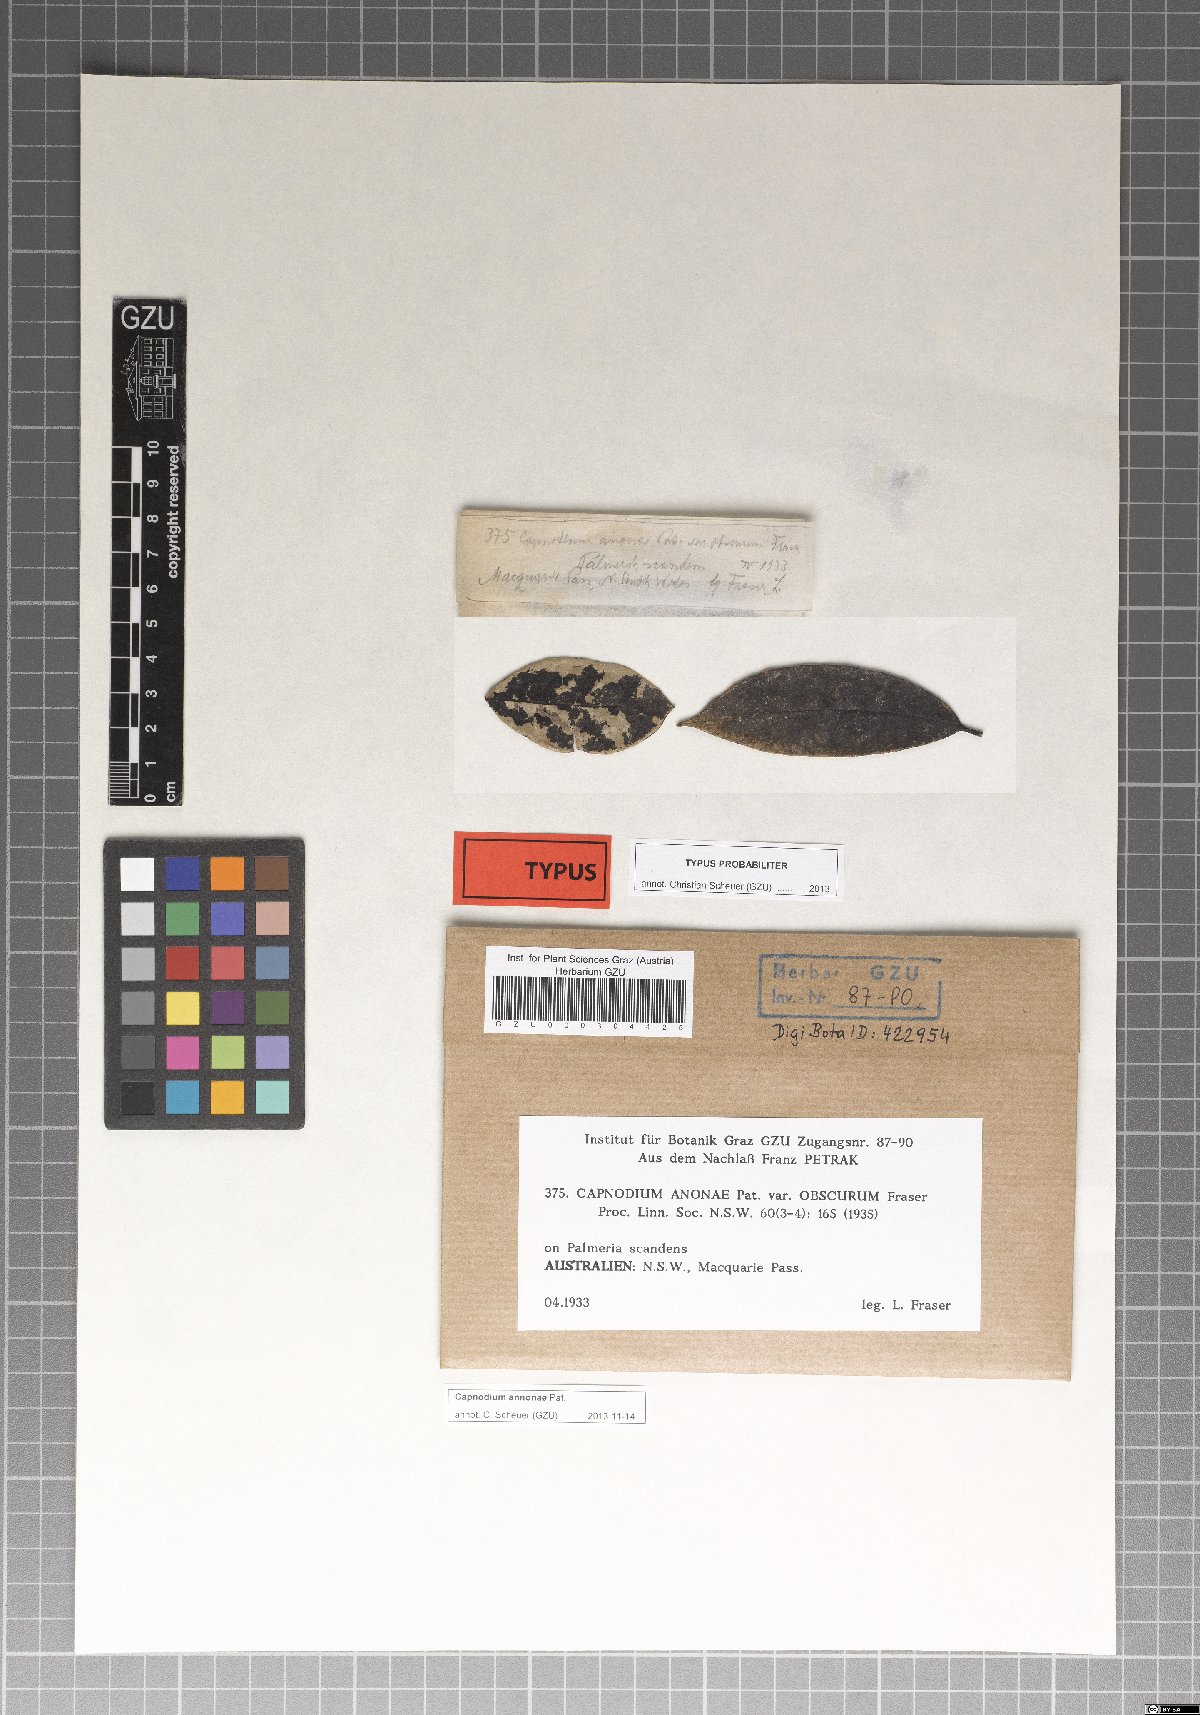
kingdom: Fungi
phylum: Ascomycota
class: Dothideomycetes
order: Capnodiales
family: Capnodiaceae
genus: Capnodium
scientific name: Capnodium annonae
